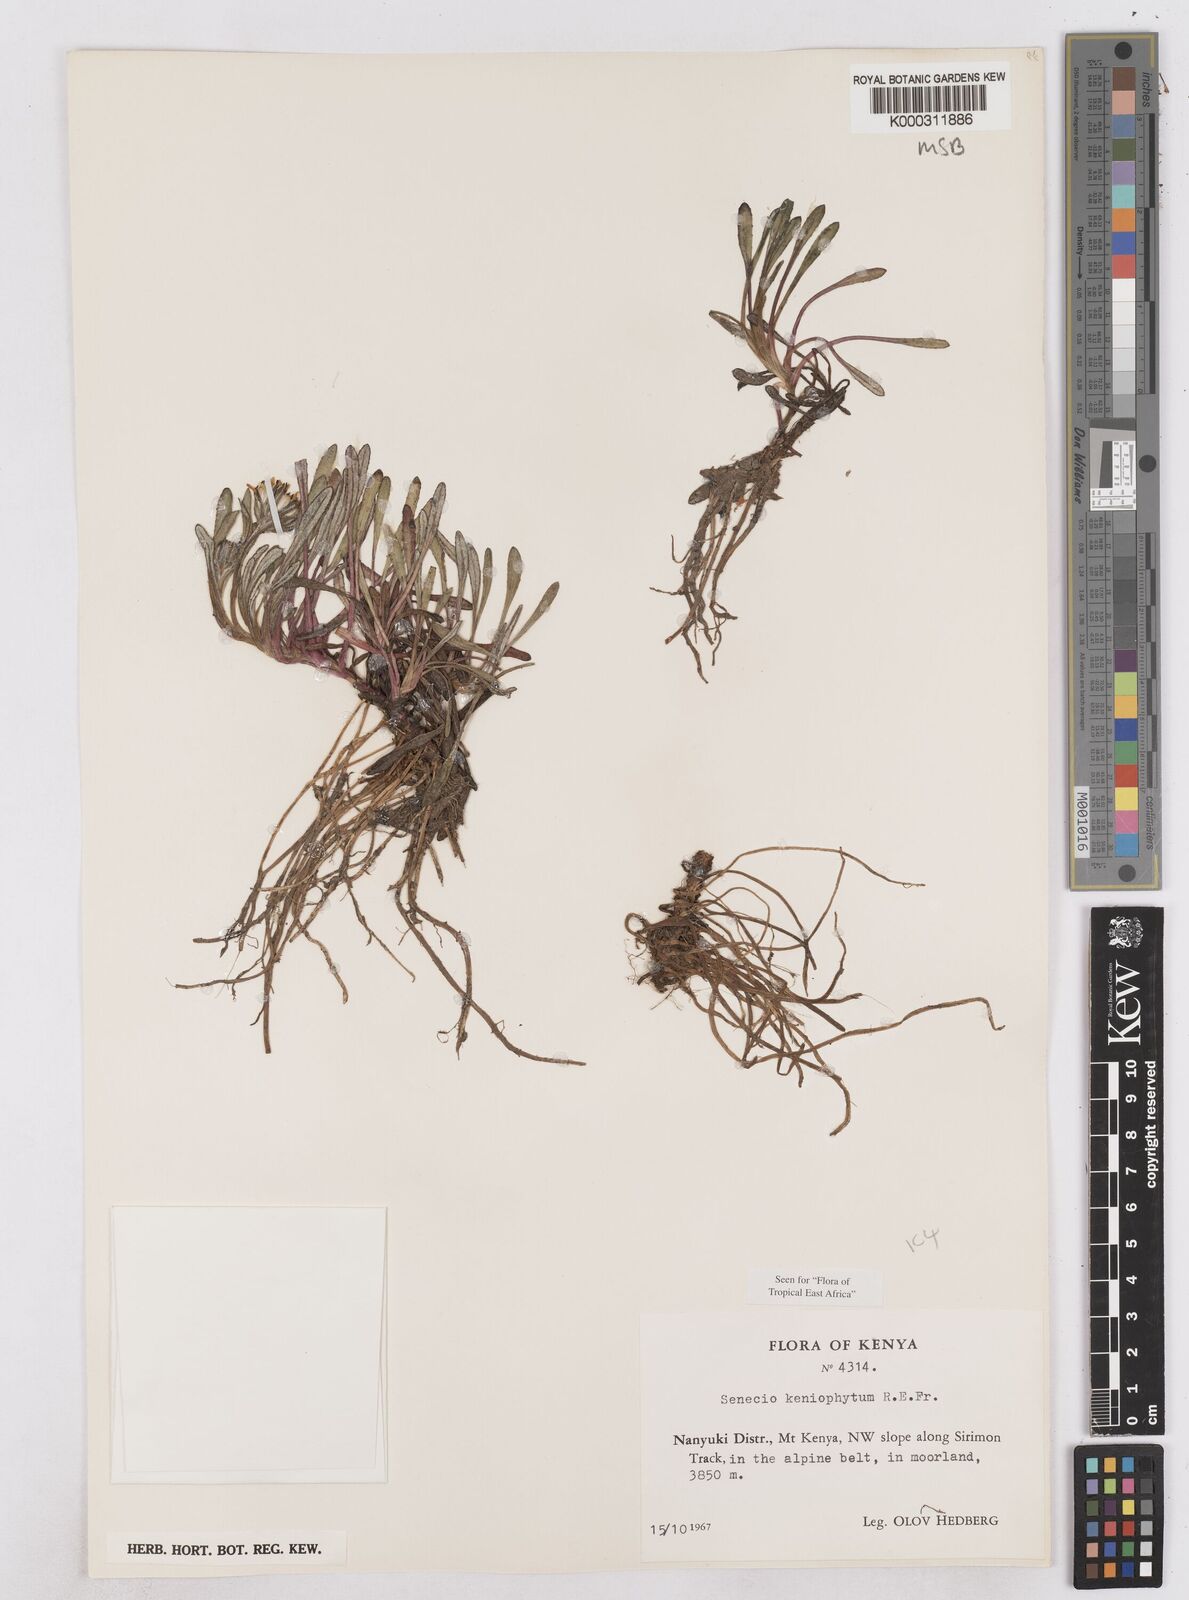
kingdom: Plantae
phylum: Tracheophyta
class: Magnoliopsida
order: Asterales
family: Asteraceae
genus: Senecio
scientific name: Senecio keniophytum
